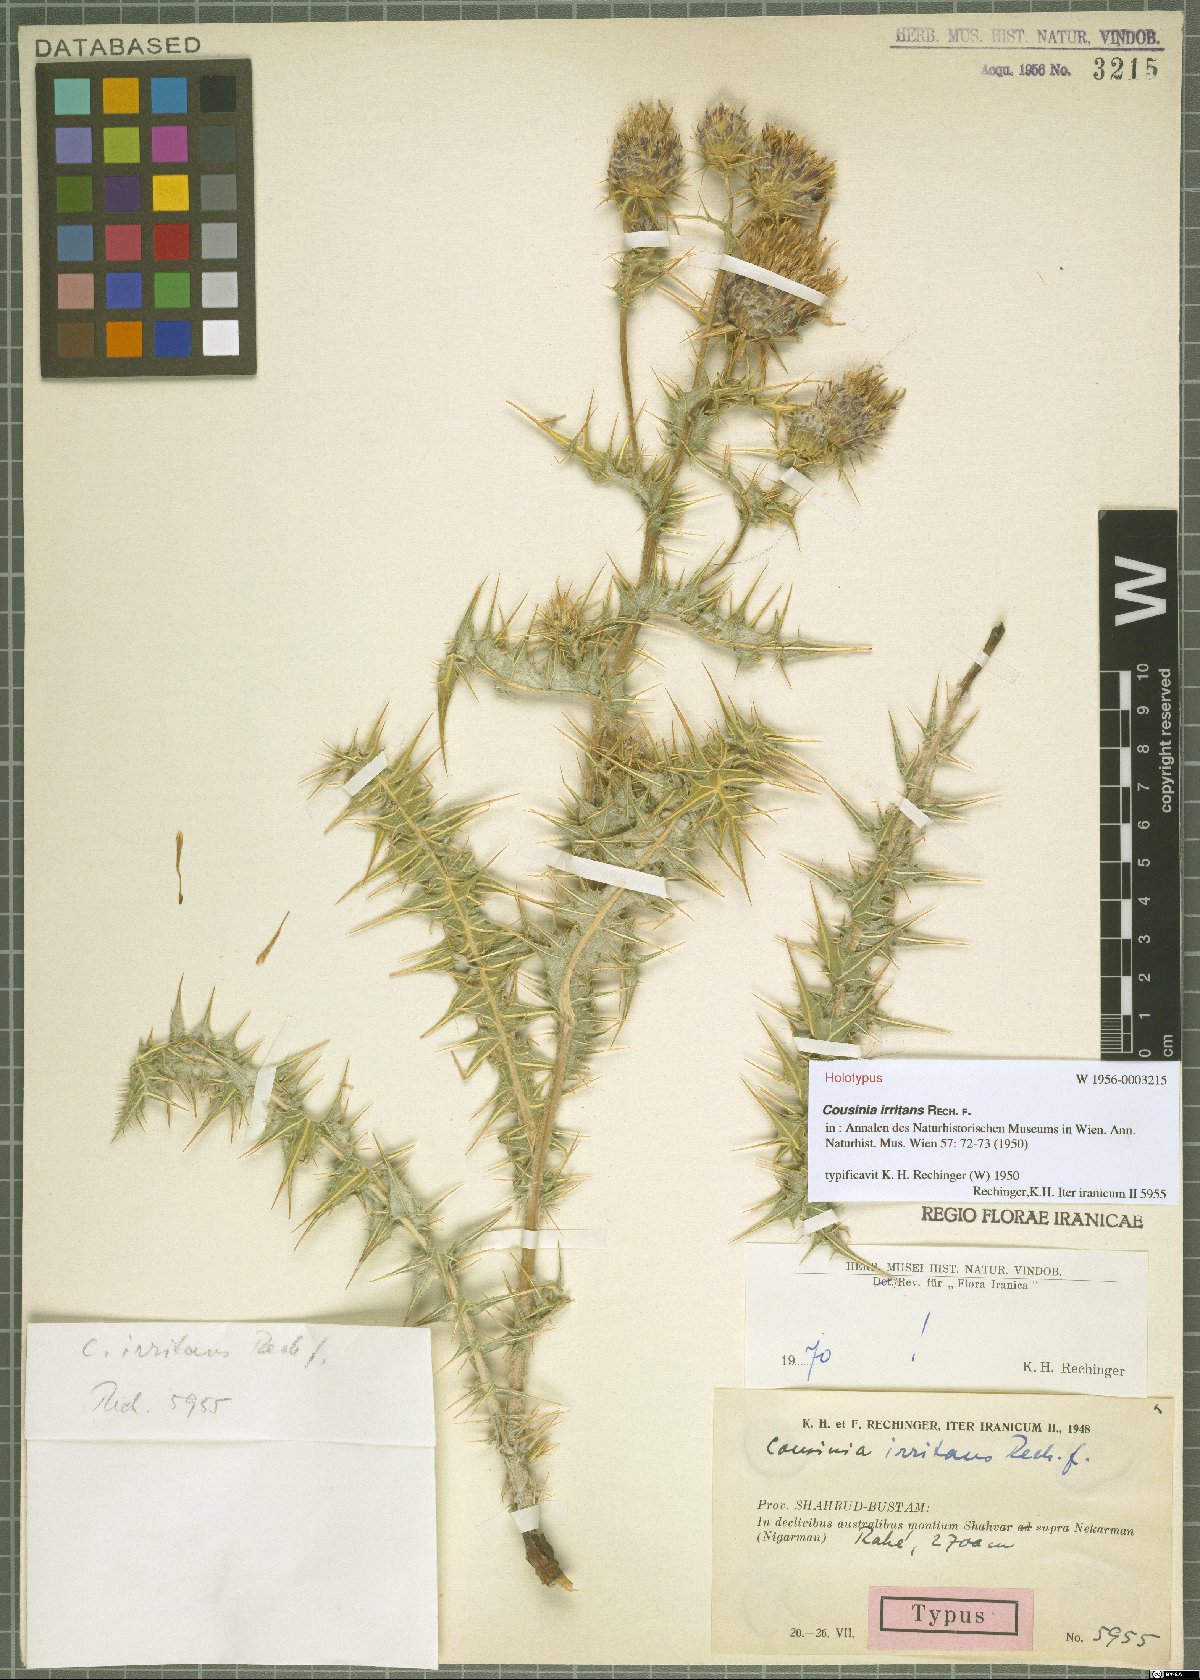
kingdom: Plantae
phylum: Tracheophyta
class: Magnoliopsida
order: Asterales
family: Asteraceae
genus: Cousinia
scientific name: Cousinia irritans
